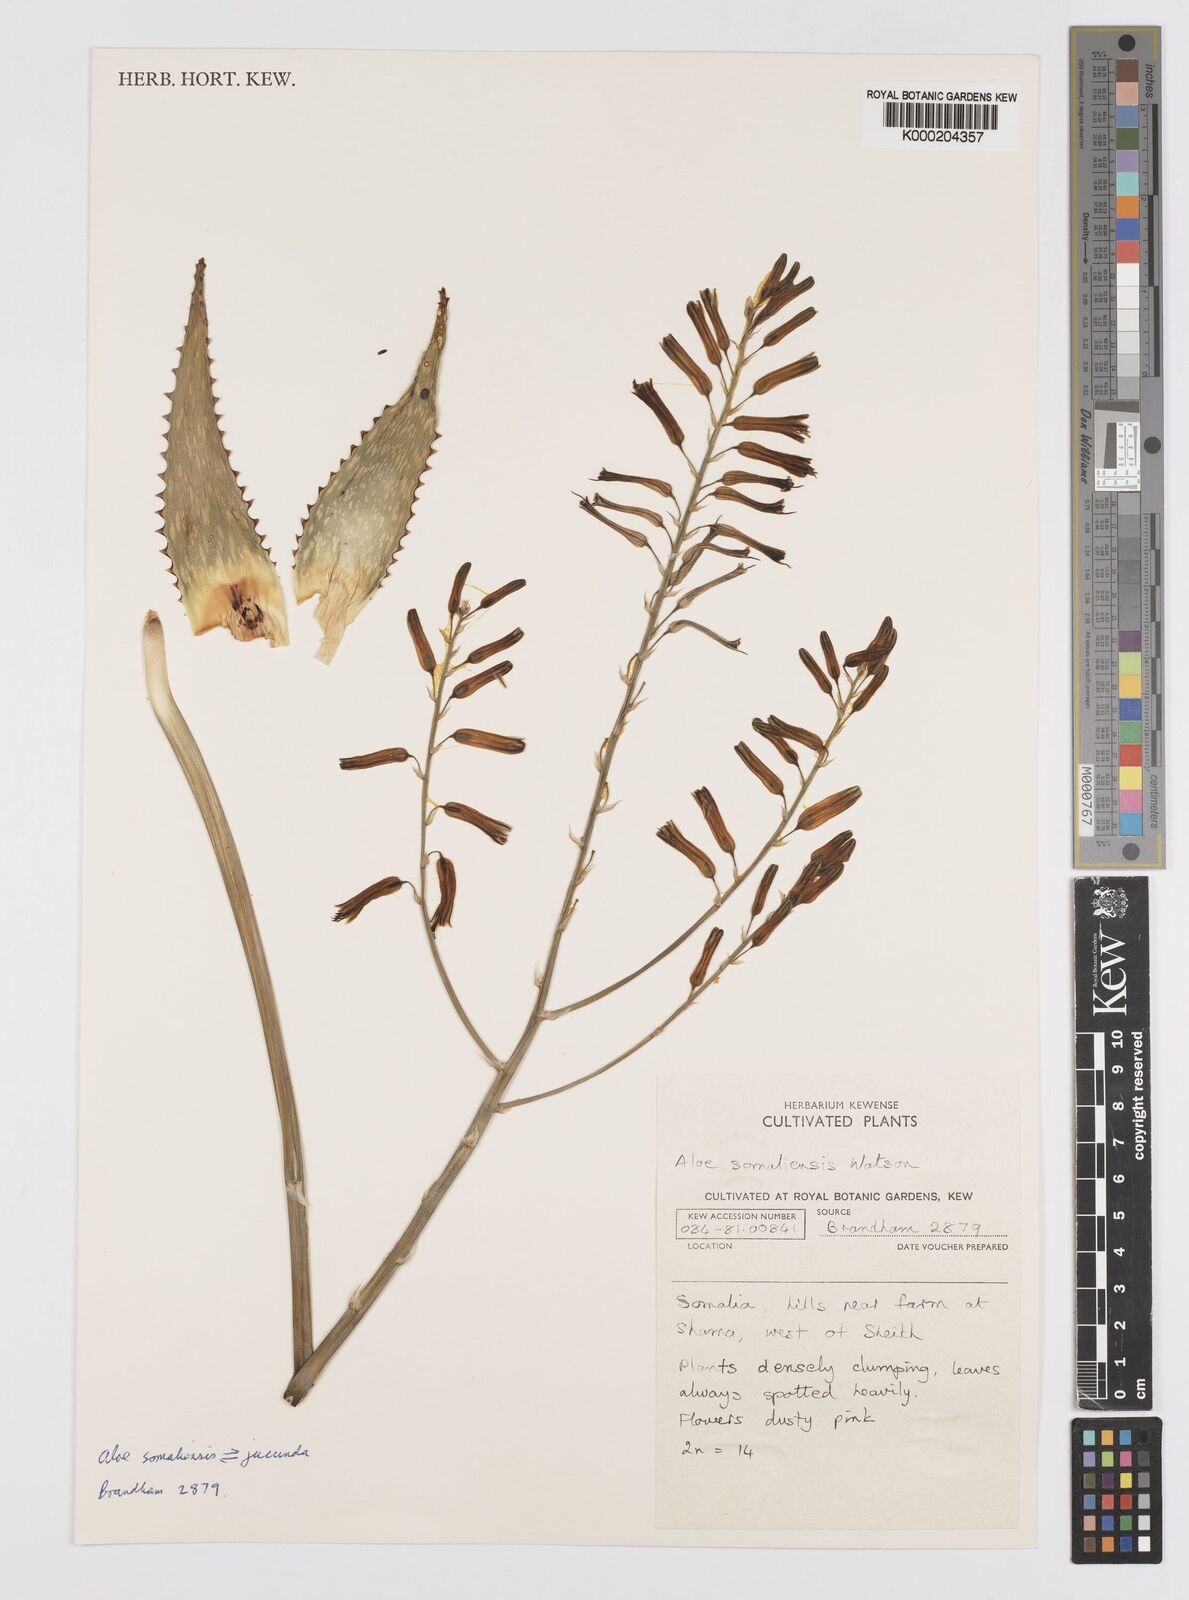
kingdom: Plantae
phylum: Tracheophyta
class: Liliopsida
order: Asparagales
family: Asphodelaceae
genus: Aloe
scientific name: Aloe somaliensis
